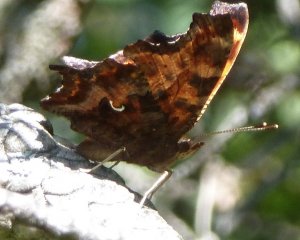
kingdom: Animalia
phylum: Arthropoda
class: Insecta
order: Lepidoptera
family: Nymphalidae
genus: Polygonia
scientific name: Polygonia comma
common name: Eastern Comma
